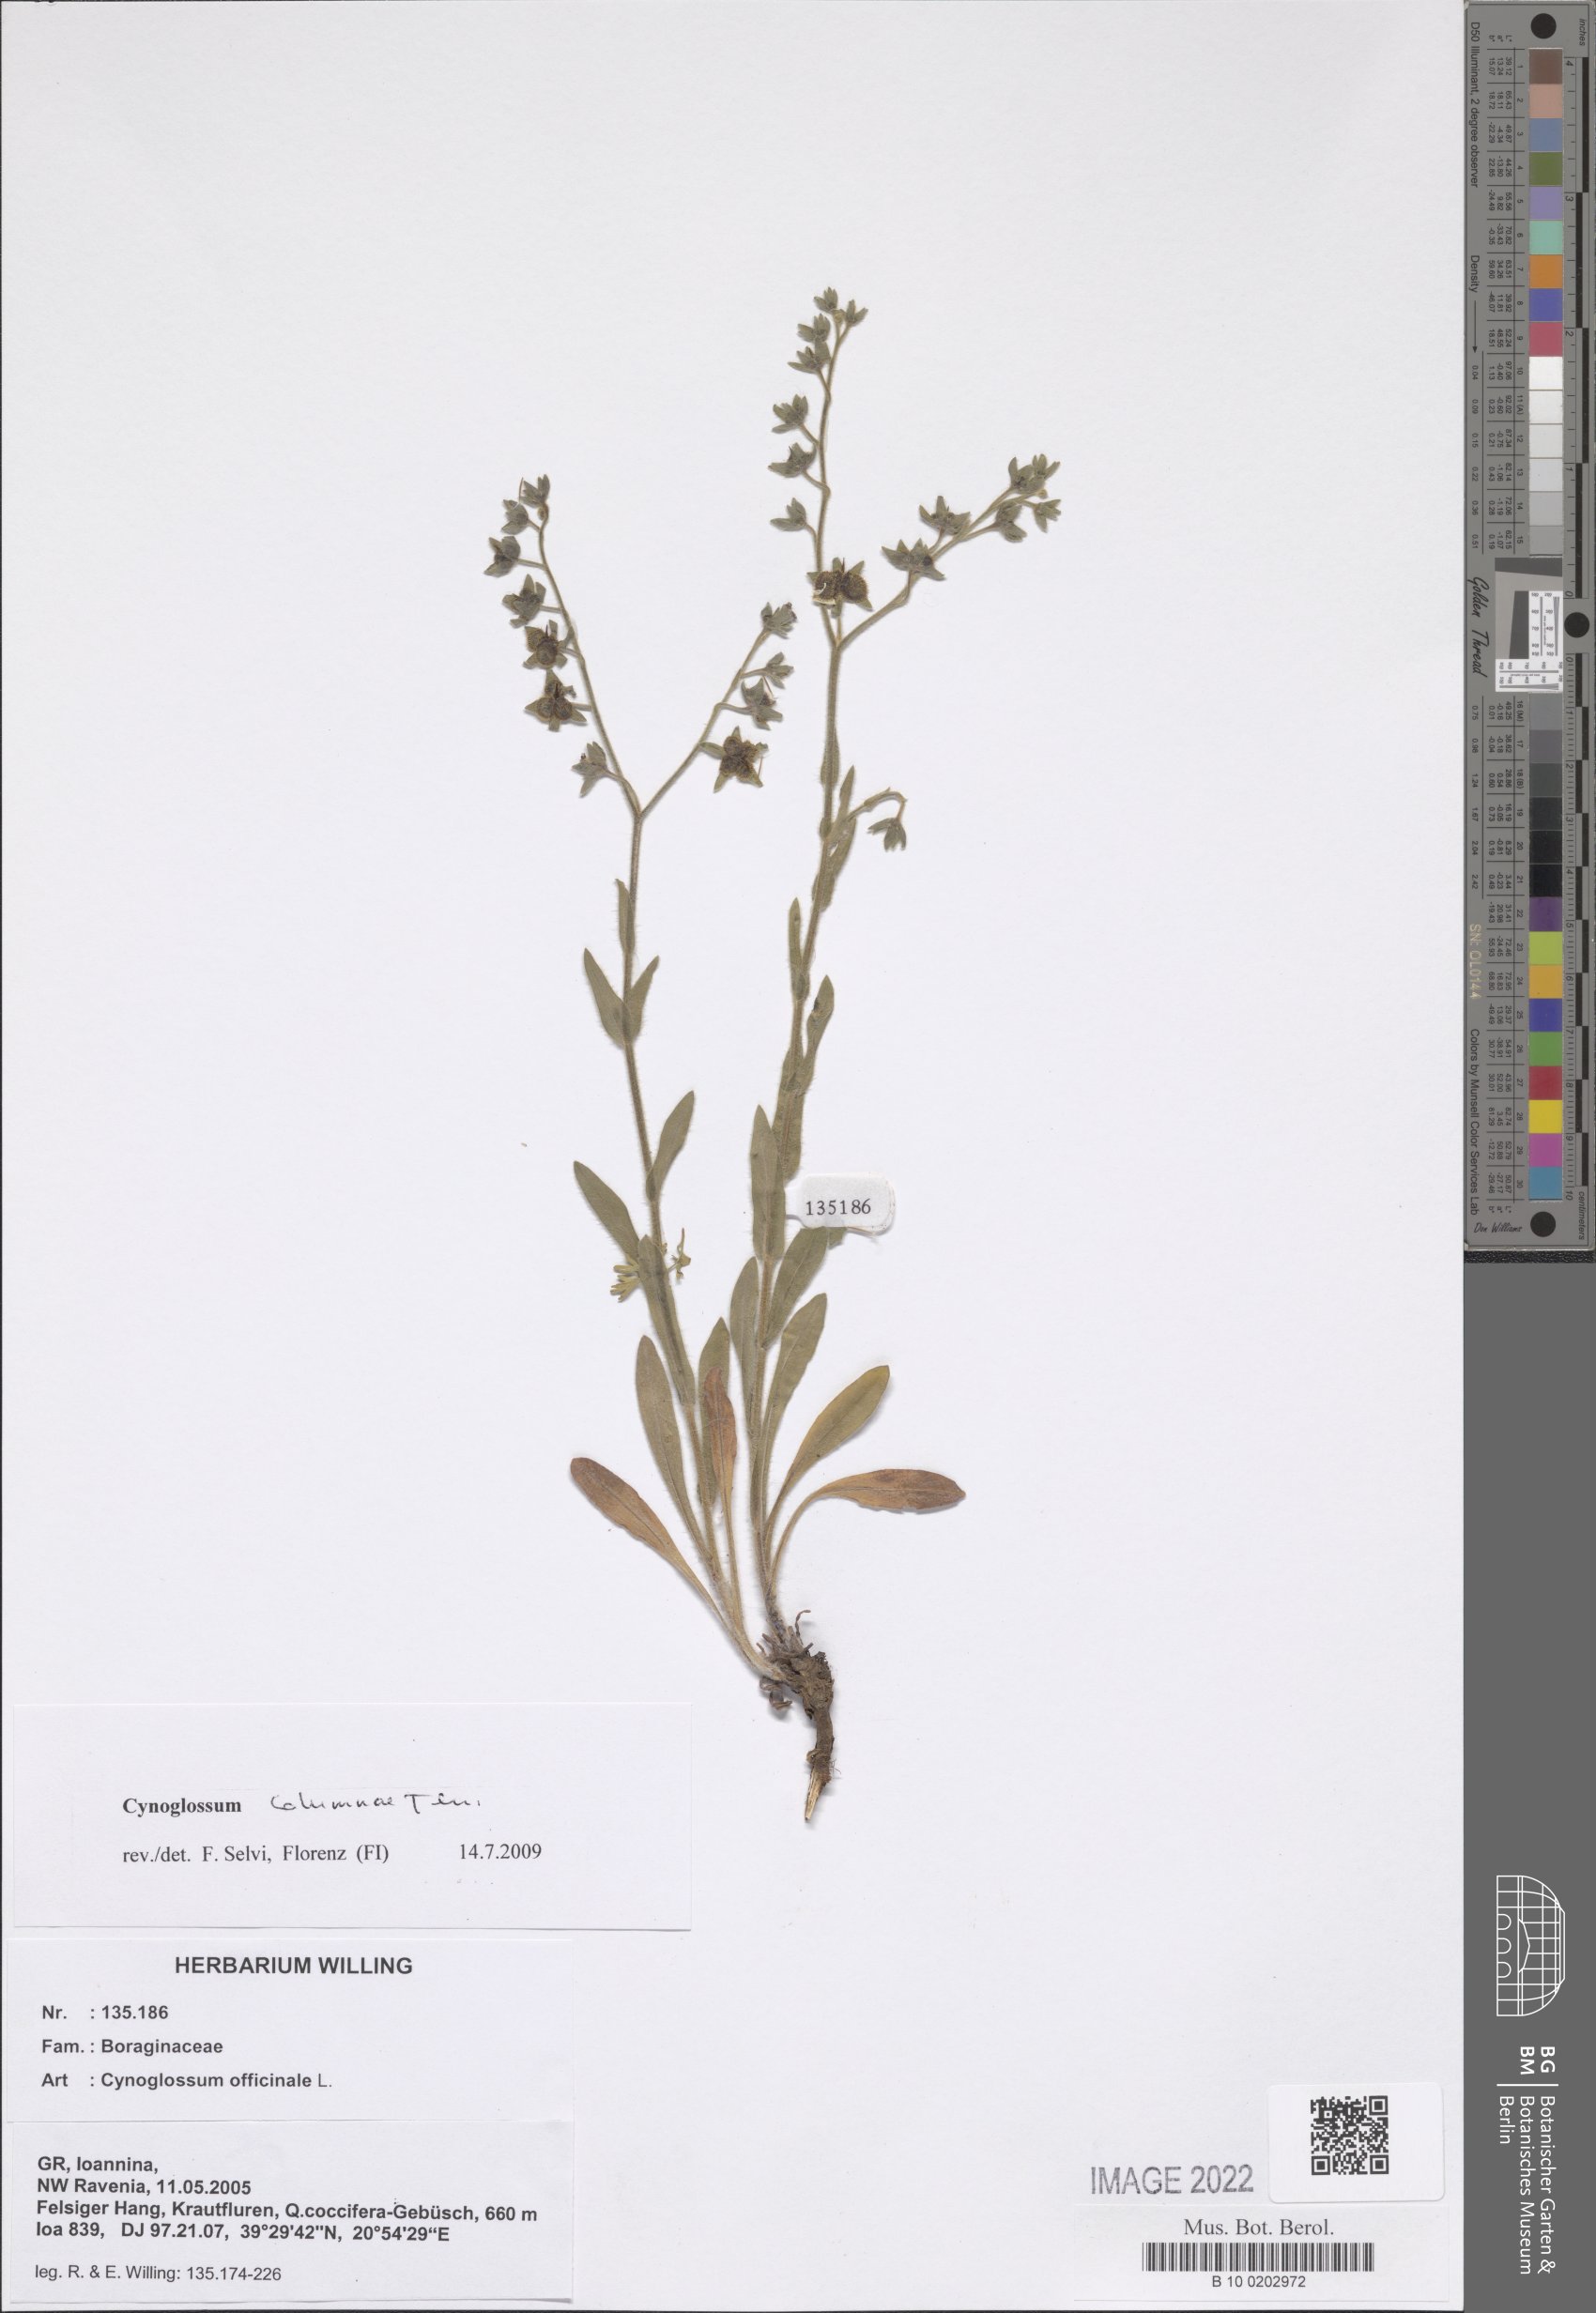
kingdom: Plantae
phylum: Tracheophyta
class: Magnoliopsida
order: Boraginales
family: Boraginaceae
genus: Rindera
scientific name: Rindera columnae
